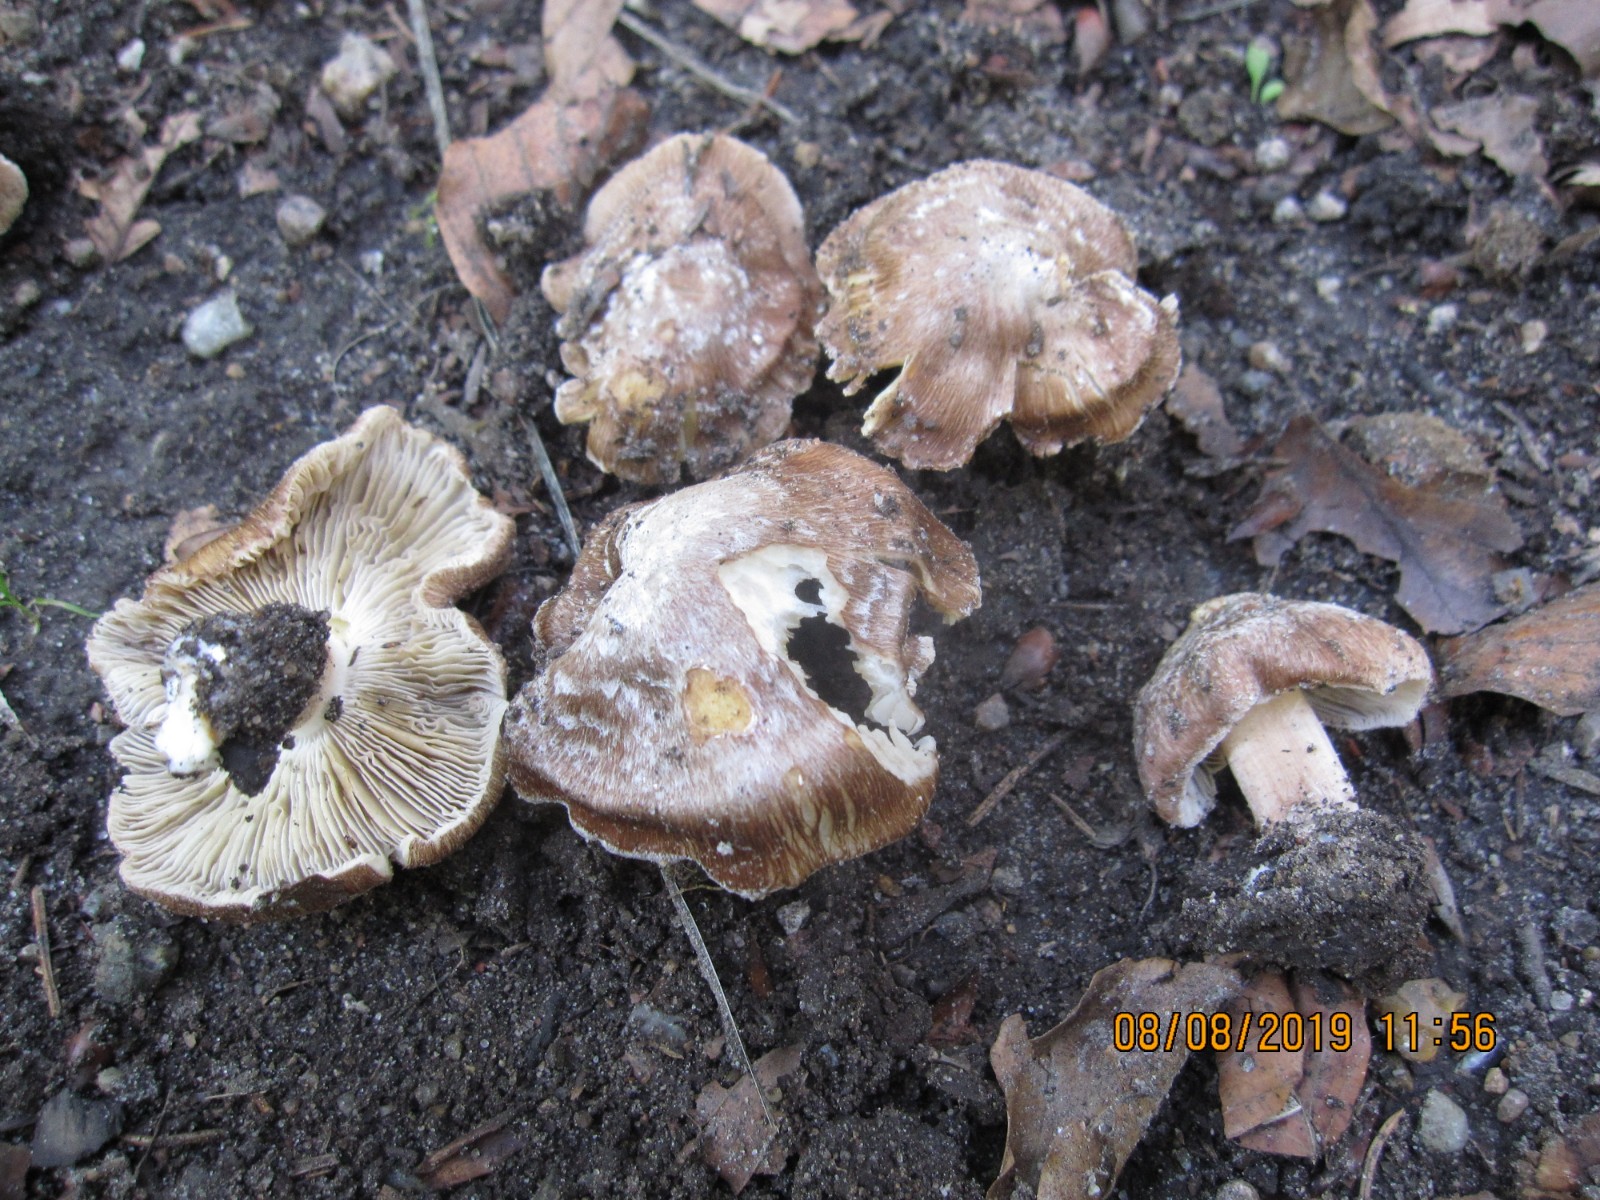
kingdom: Fungi
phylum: Basidiomycota
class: Agaricomycetes
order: Agaricales
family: Inocybaceae
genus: Inosperma
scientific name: Inosperma maculatum
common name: plettet trævlhat
